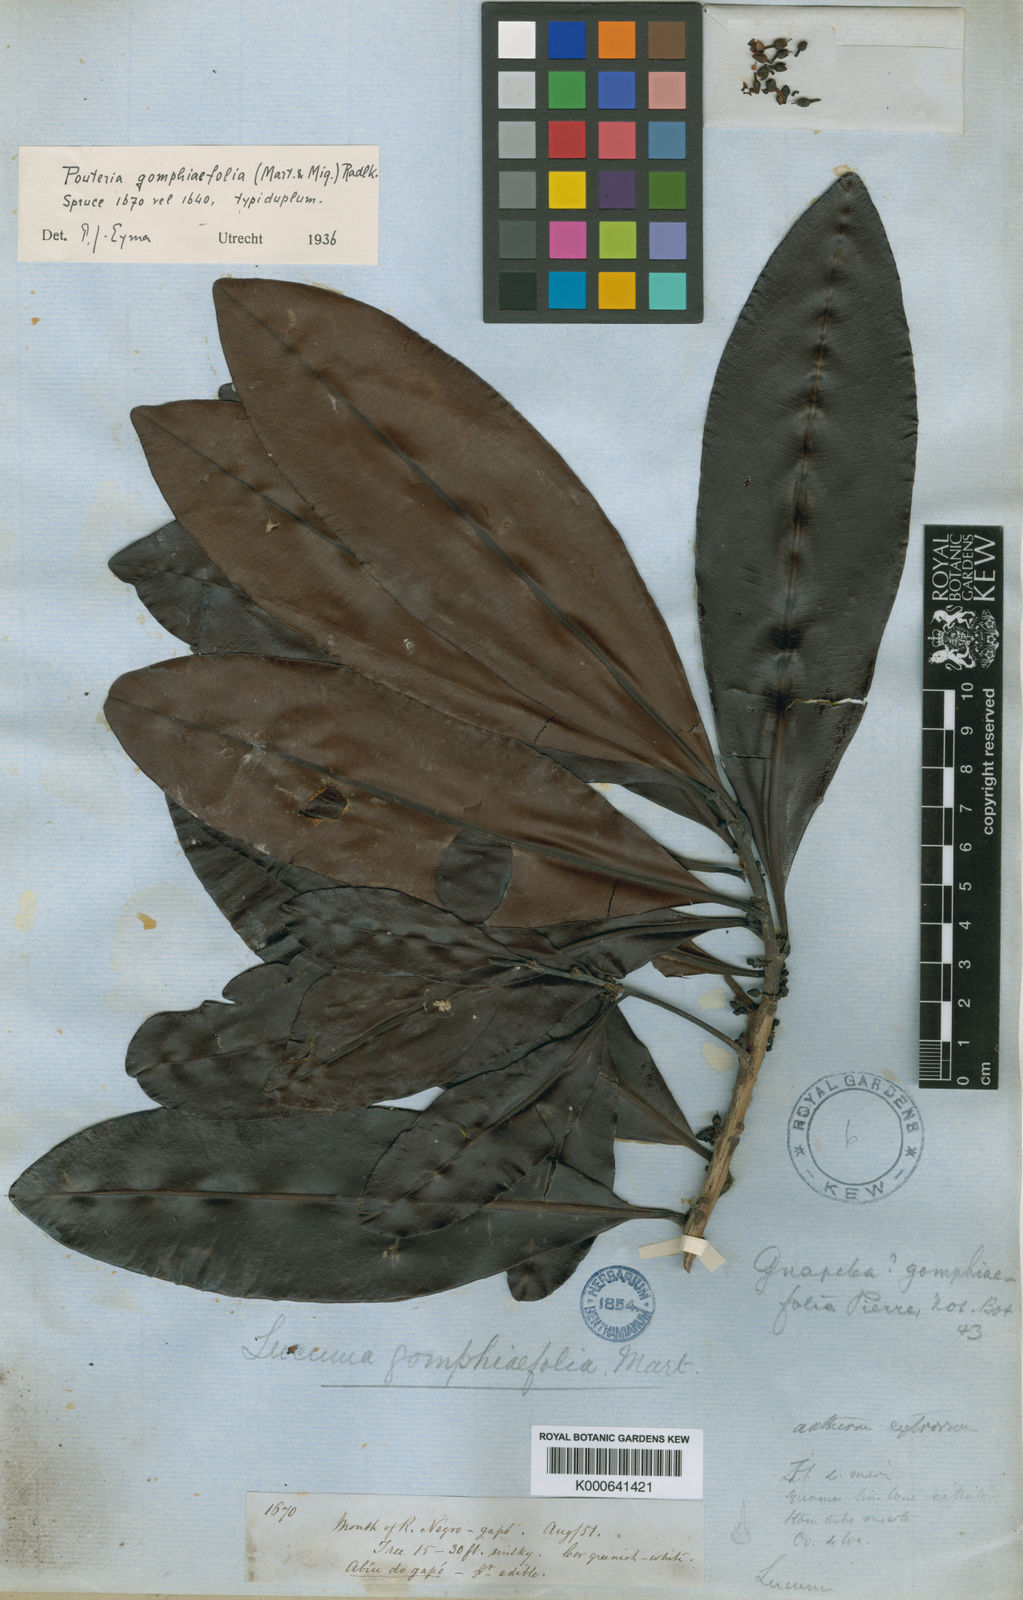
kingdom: Plantae
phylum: Tracheophyta
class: Magnoliopsida
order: Ericales
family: Sapotaceae
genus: Pouteria
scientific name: Pouteria gomphiifolia
